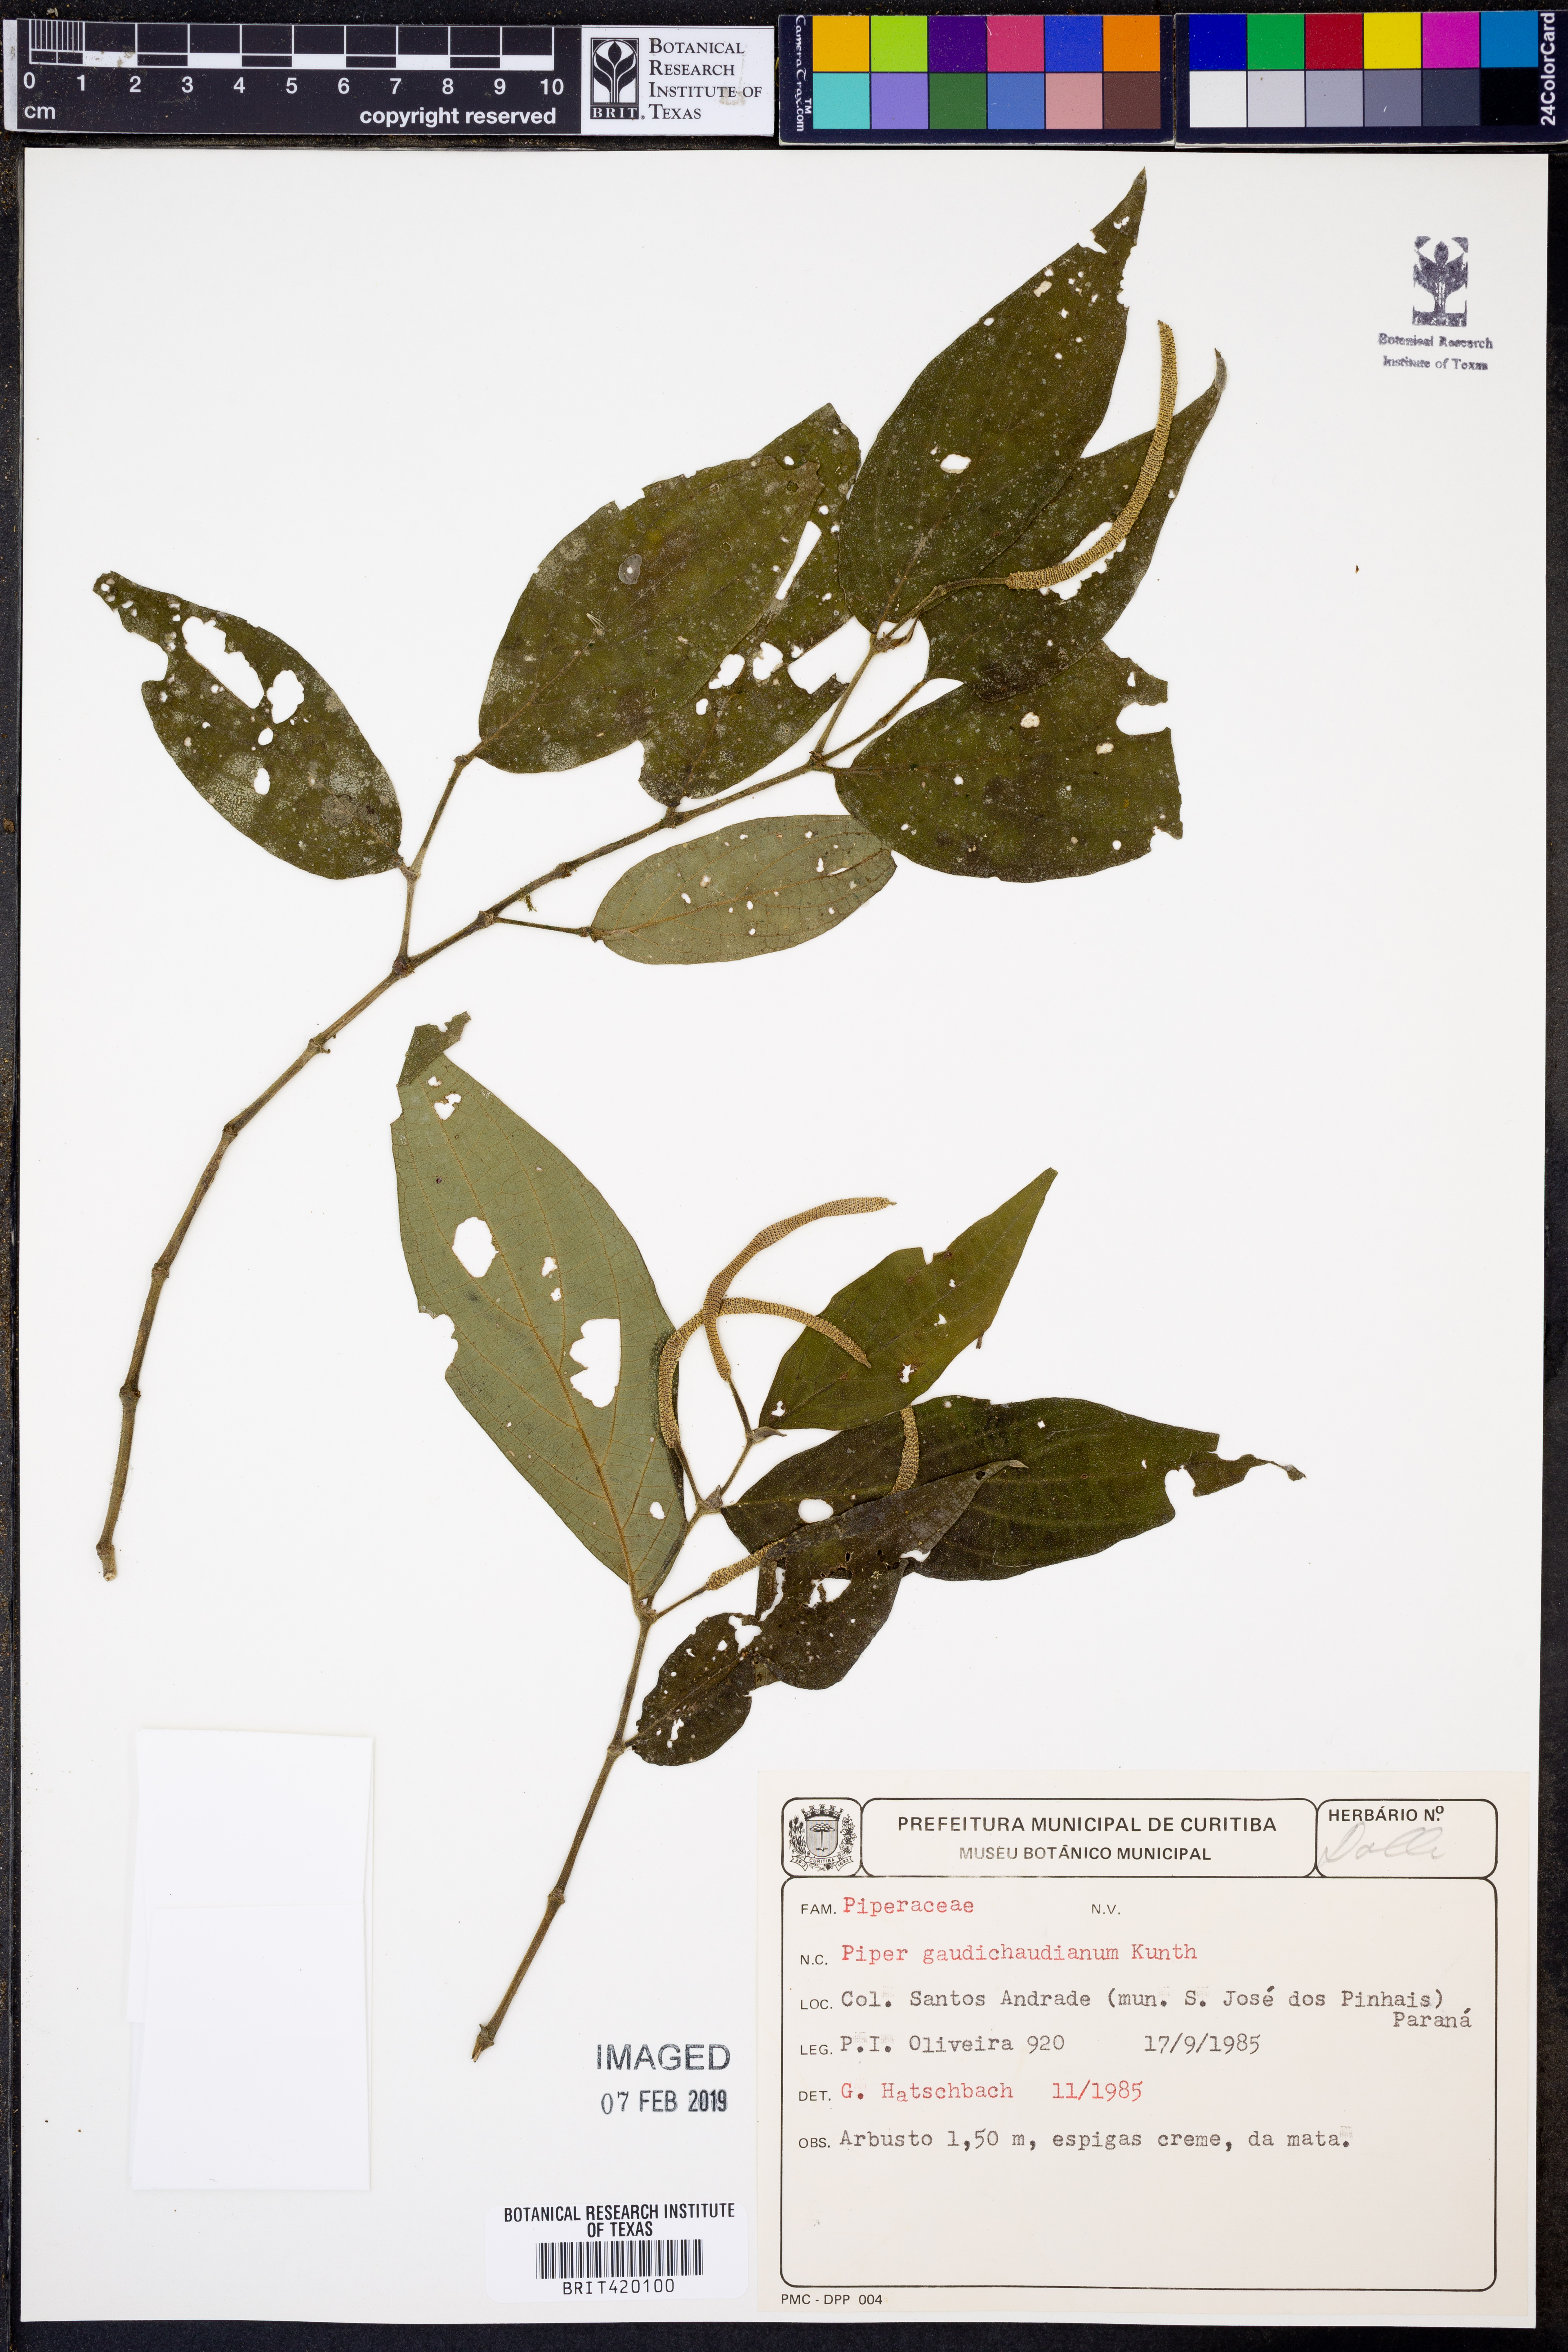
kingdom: Plantae
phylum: Tracheophyta
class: Magnoliopsida
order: Piperales
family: Piperaceae
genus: Piper
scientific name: Piper gaudichaudianum
